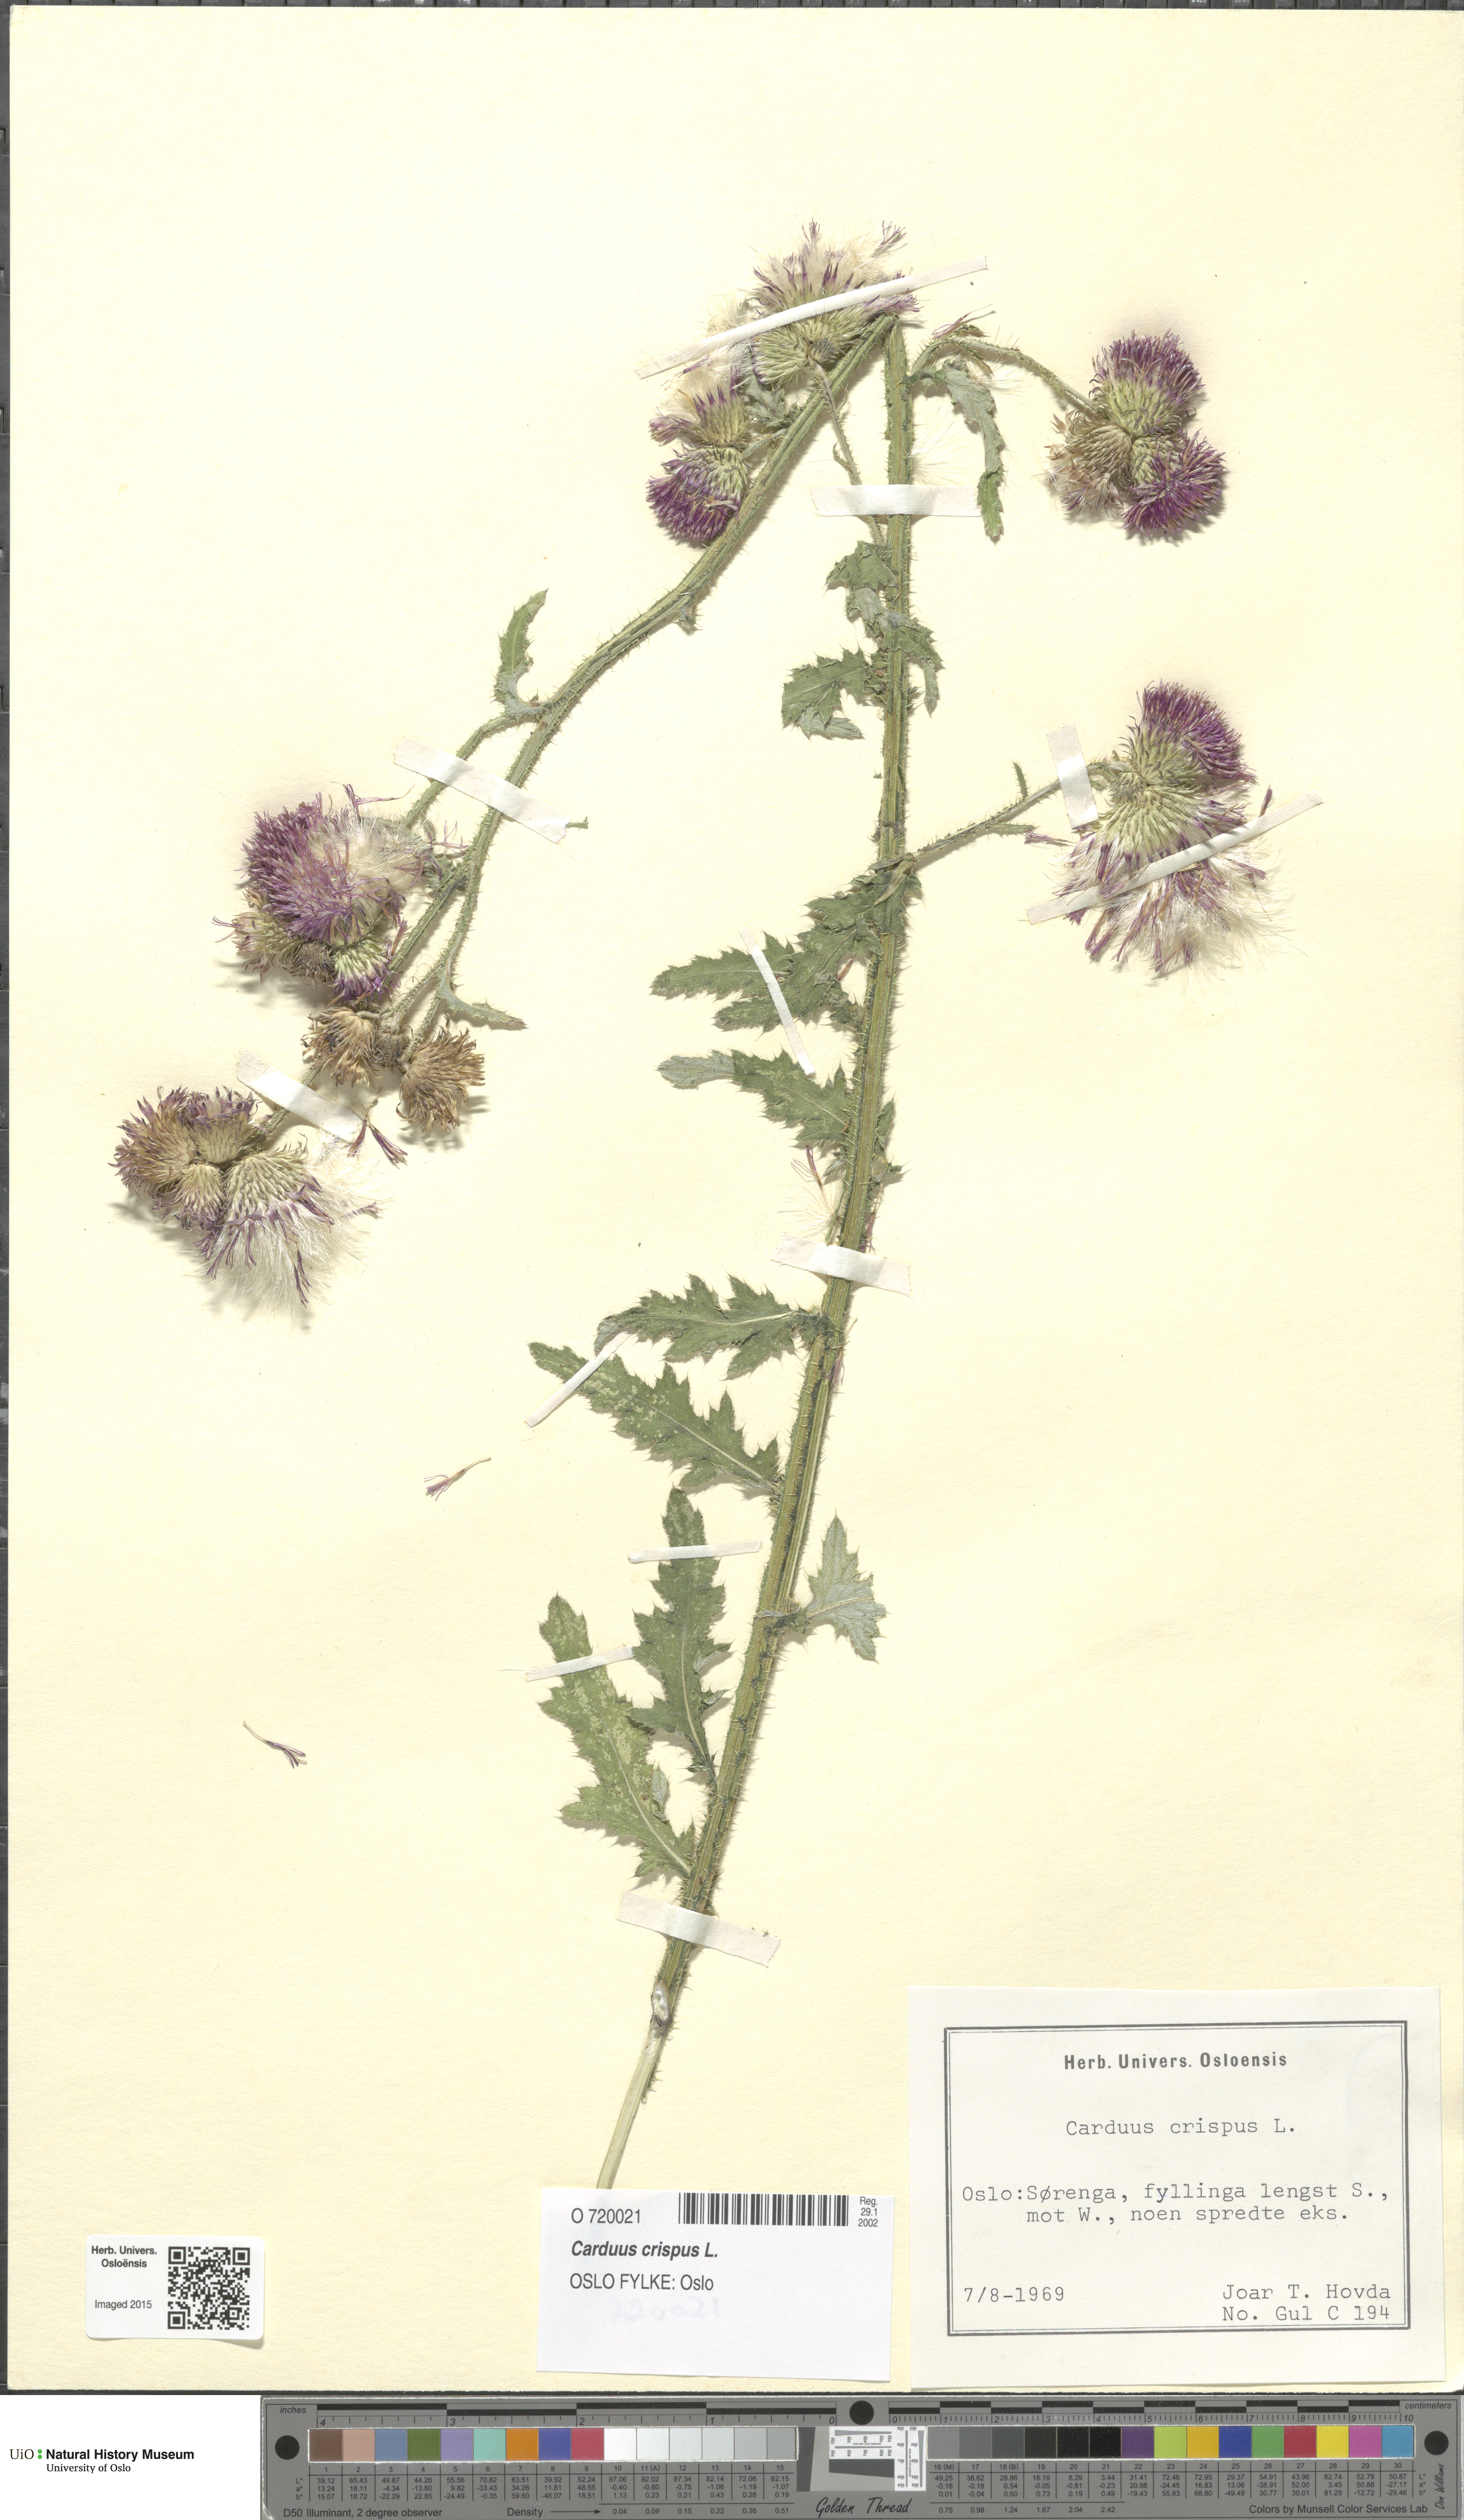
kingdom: Plantae
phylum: Tracheophyta
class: Magnoliopsida
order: Asterales
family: Asteraceae
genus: Carduus
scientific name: Carduus crispus
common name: Welted thistle
